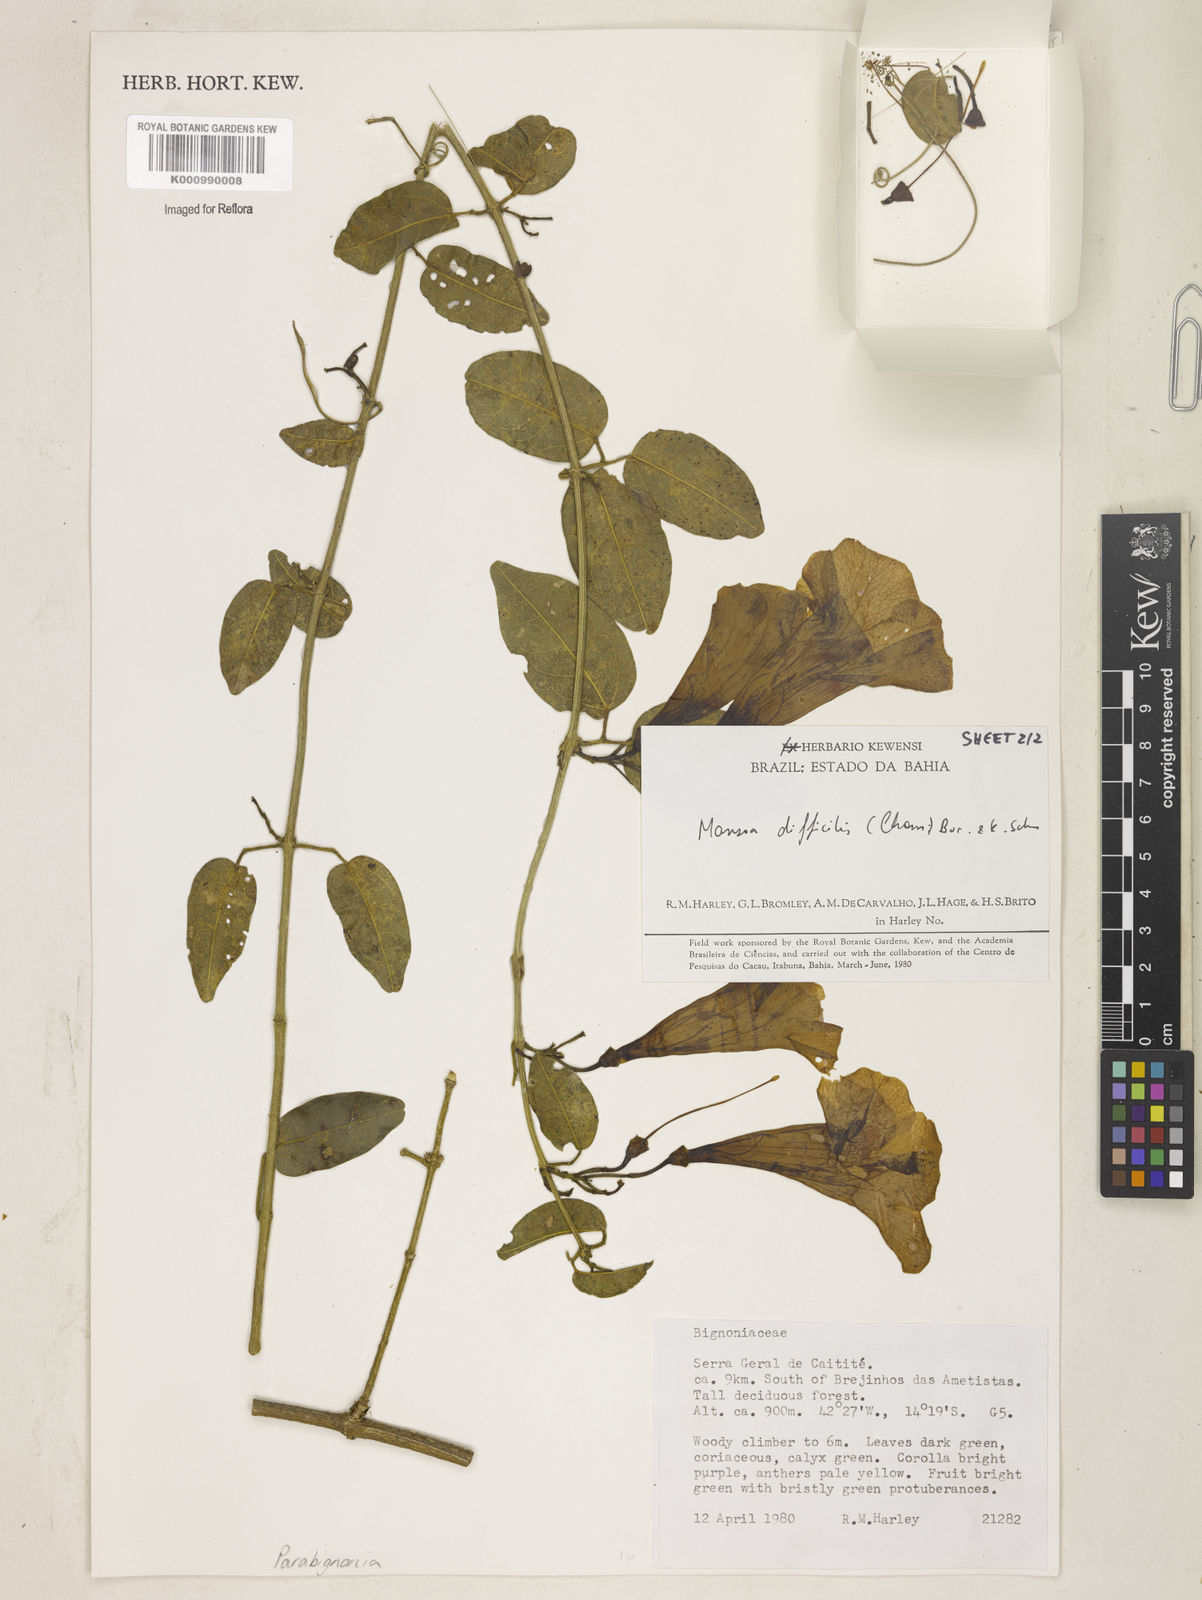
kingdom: Plantae
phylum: Tracheophyta
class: Magnoliopsida
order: Lamiales
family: Bignoniaceae
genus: Mansoa
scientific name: Mansoa difficilis
